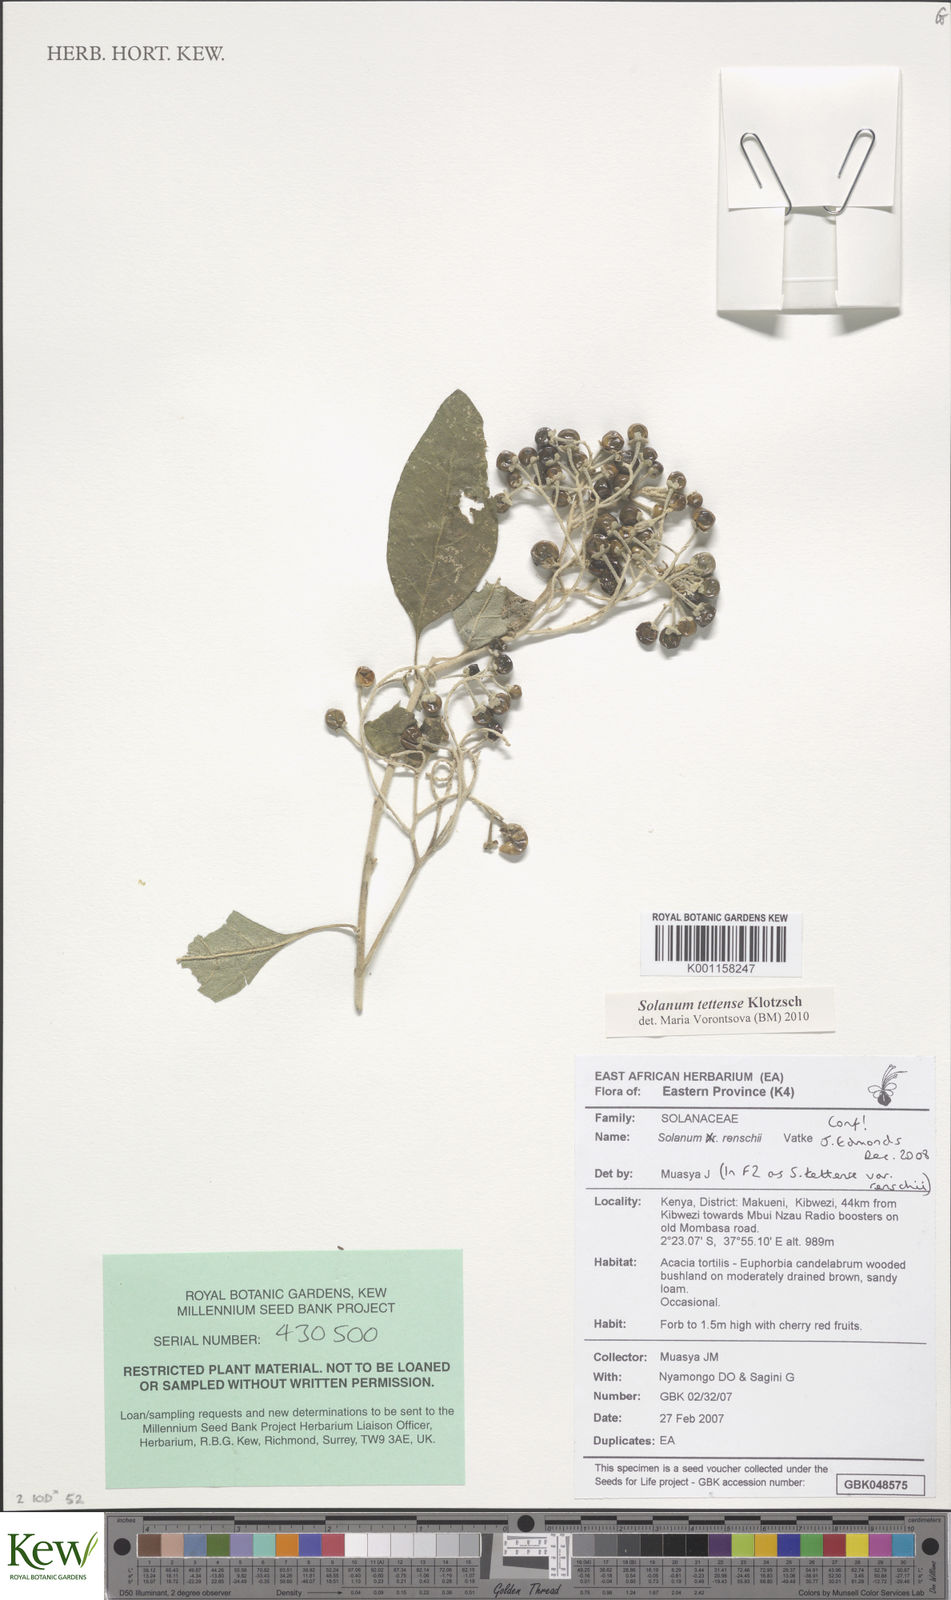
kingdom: Plantae
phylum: Tracheophyta
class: Magnoliopsida
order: Solanales
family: Solanaceae
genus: Solanum
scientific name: Solanum tettense
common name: Mozambique bitter apple
